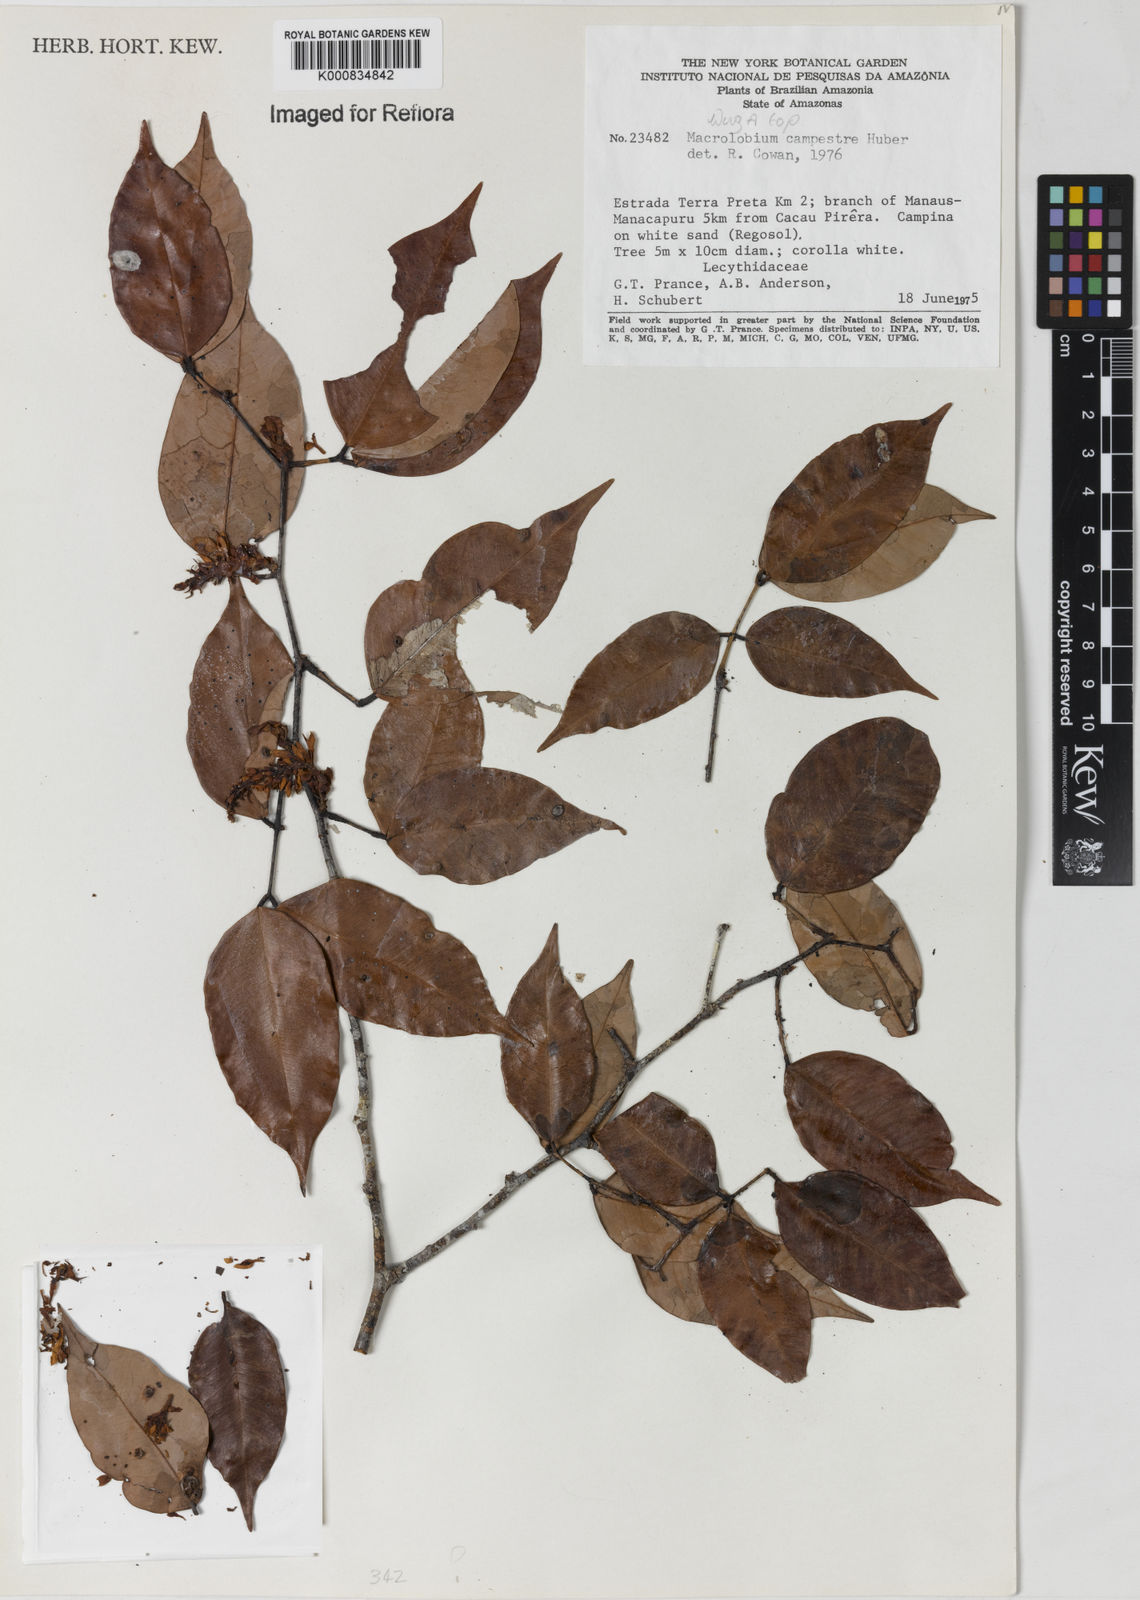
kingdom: Plantae
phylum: Tracheophyta
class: Magnoliopsida
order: Fabales
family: Fabaceae
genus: Macrolobium
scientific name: Macrolobium campestre
